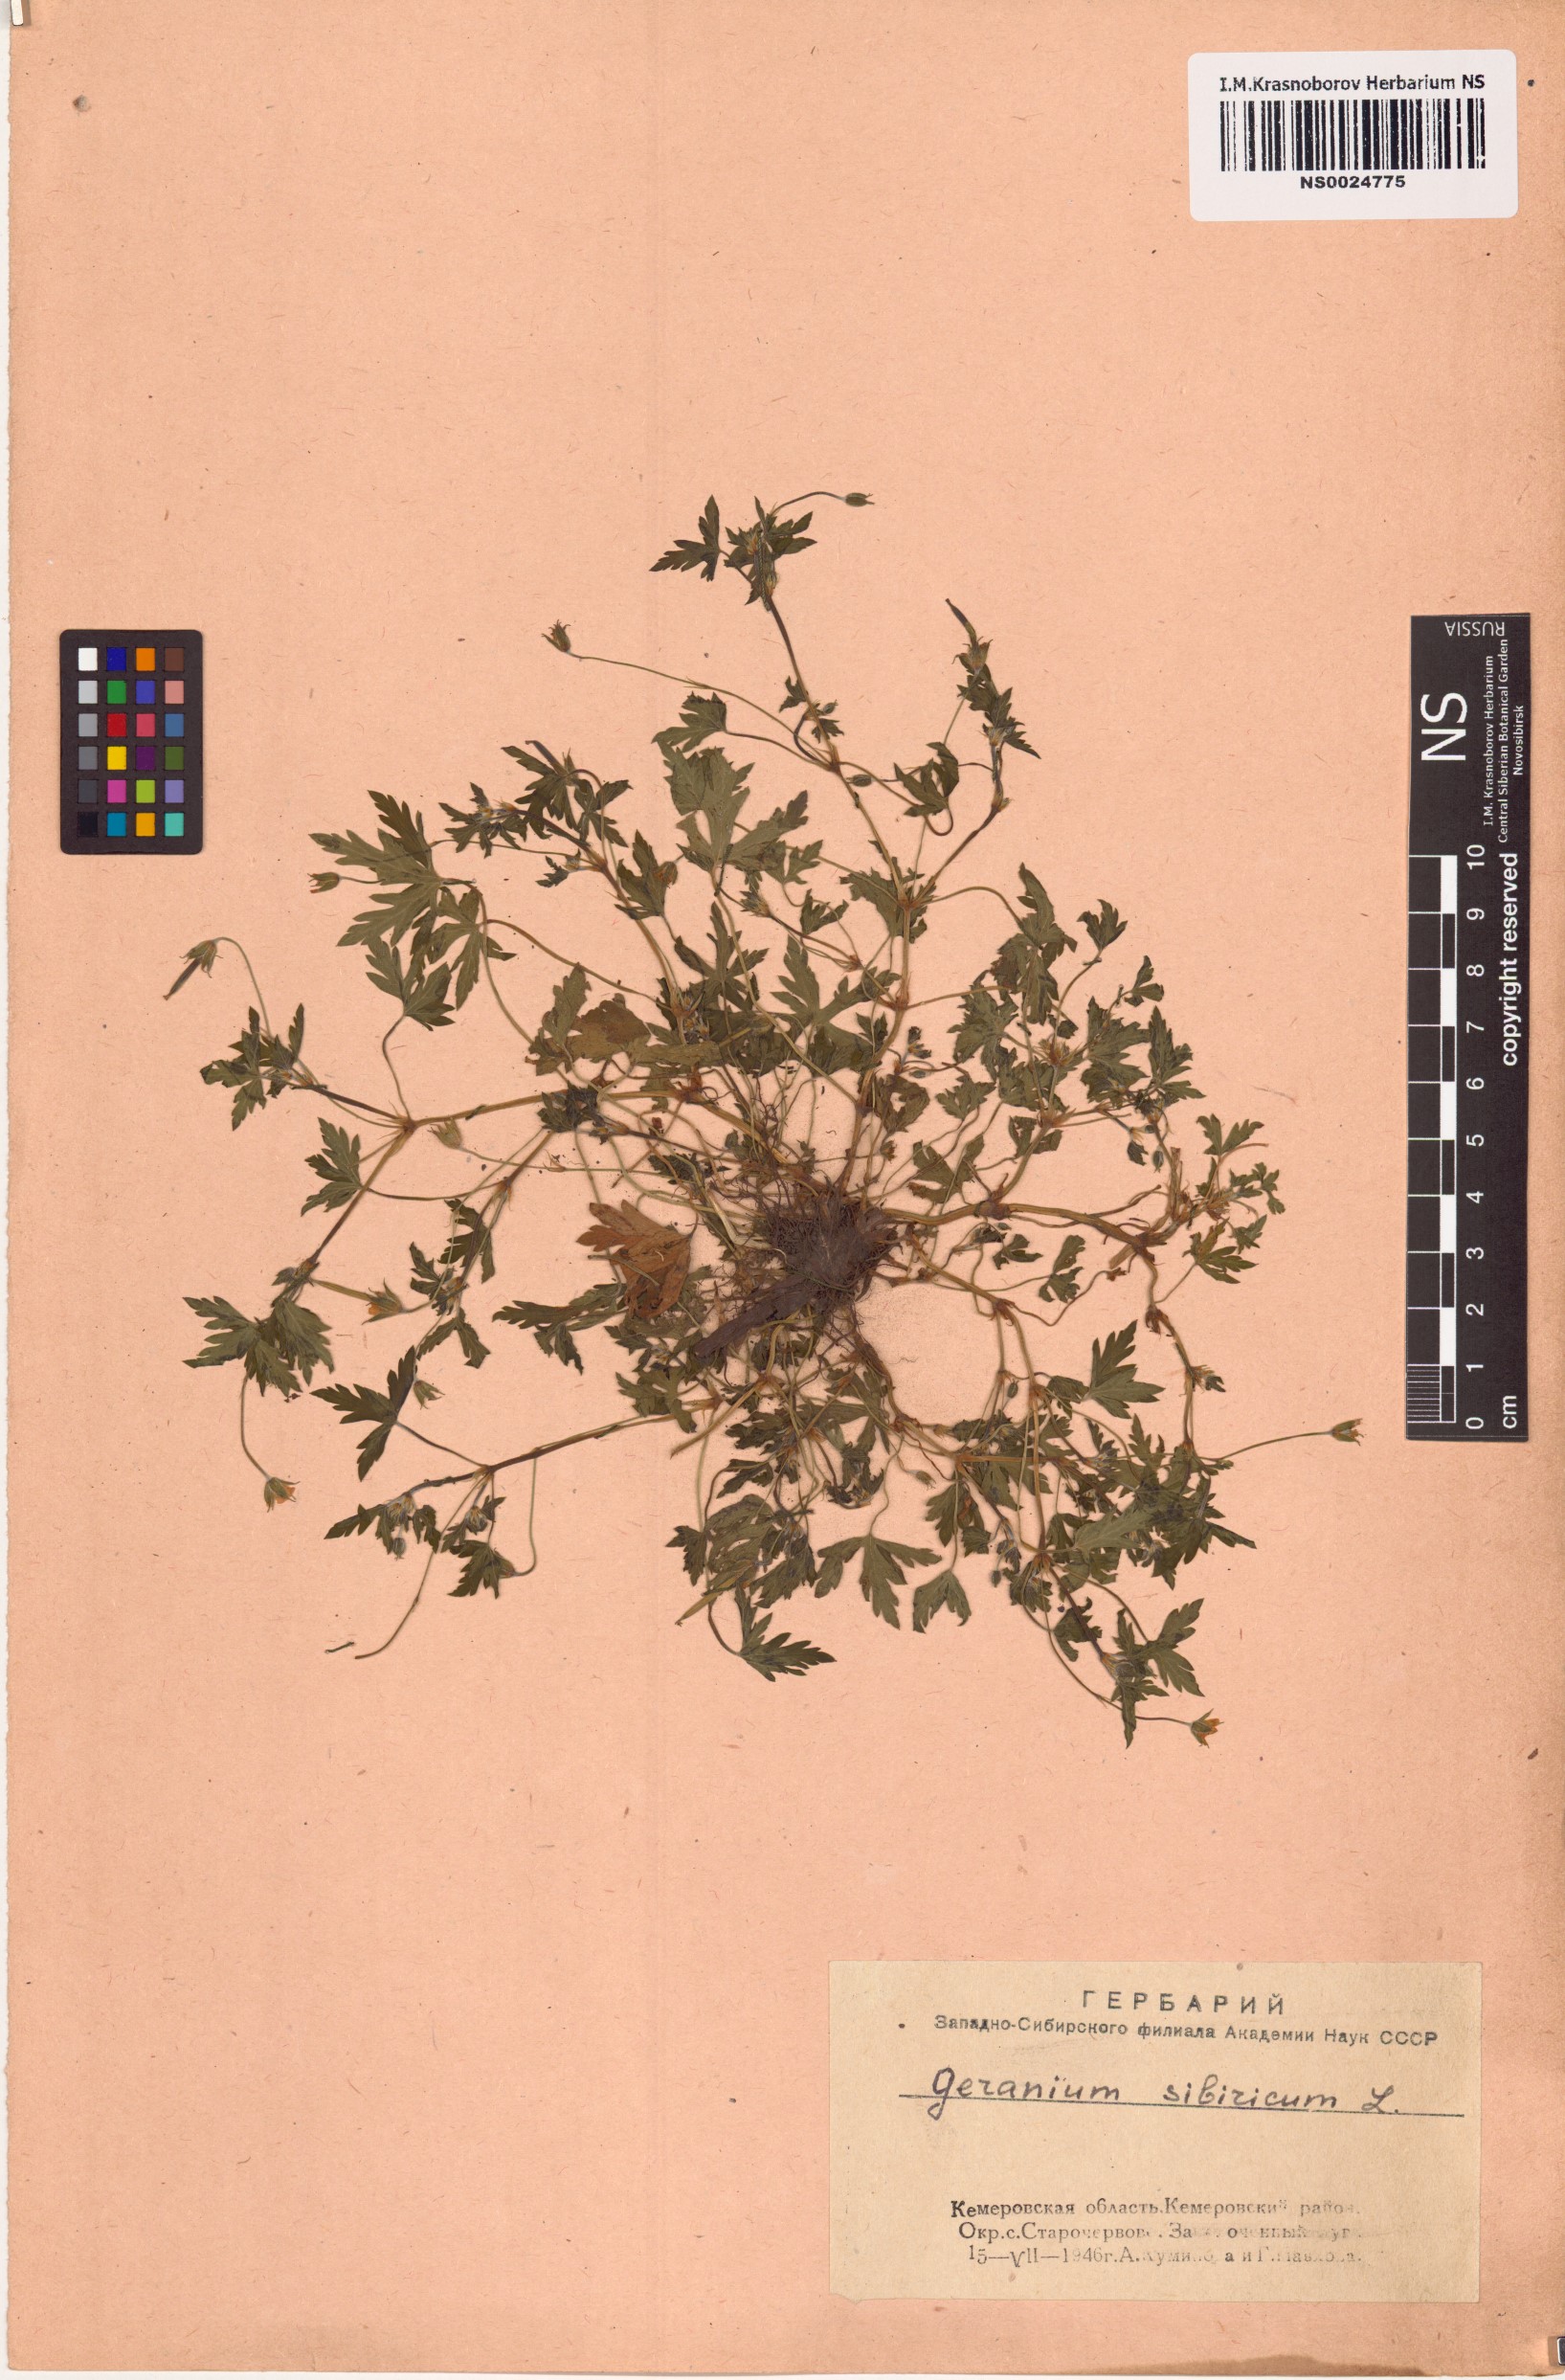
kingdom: Plantae
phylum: Tracheophyta
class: Magnoliopsida
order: Geraniales
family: Geraniaceae
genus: Geranium
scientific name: Geranium sibiricum
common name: Siberian crane's-bill
